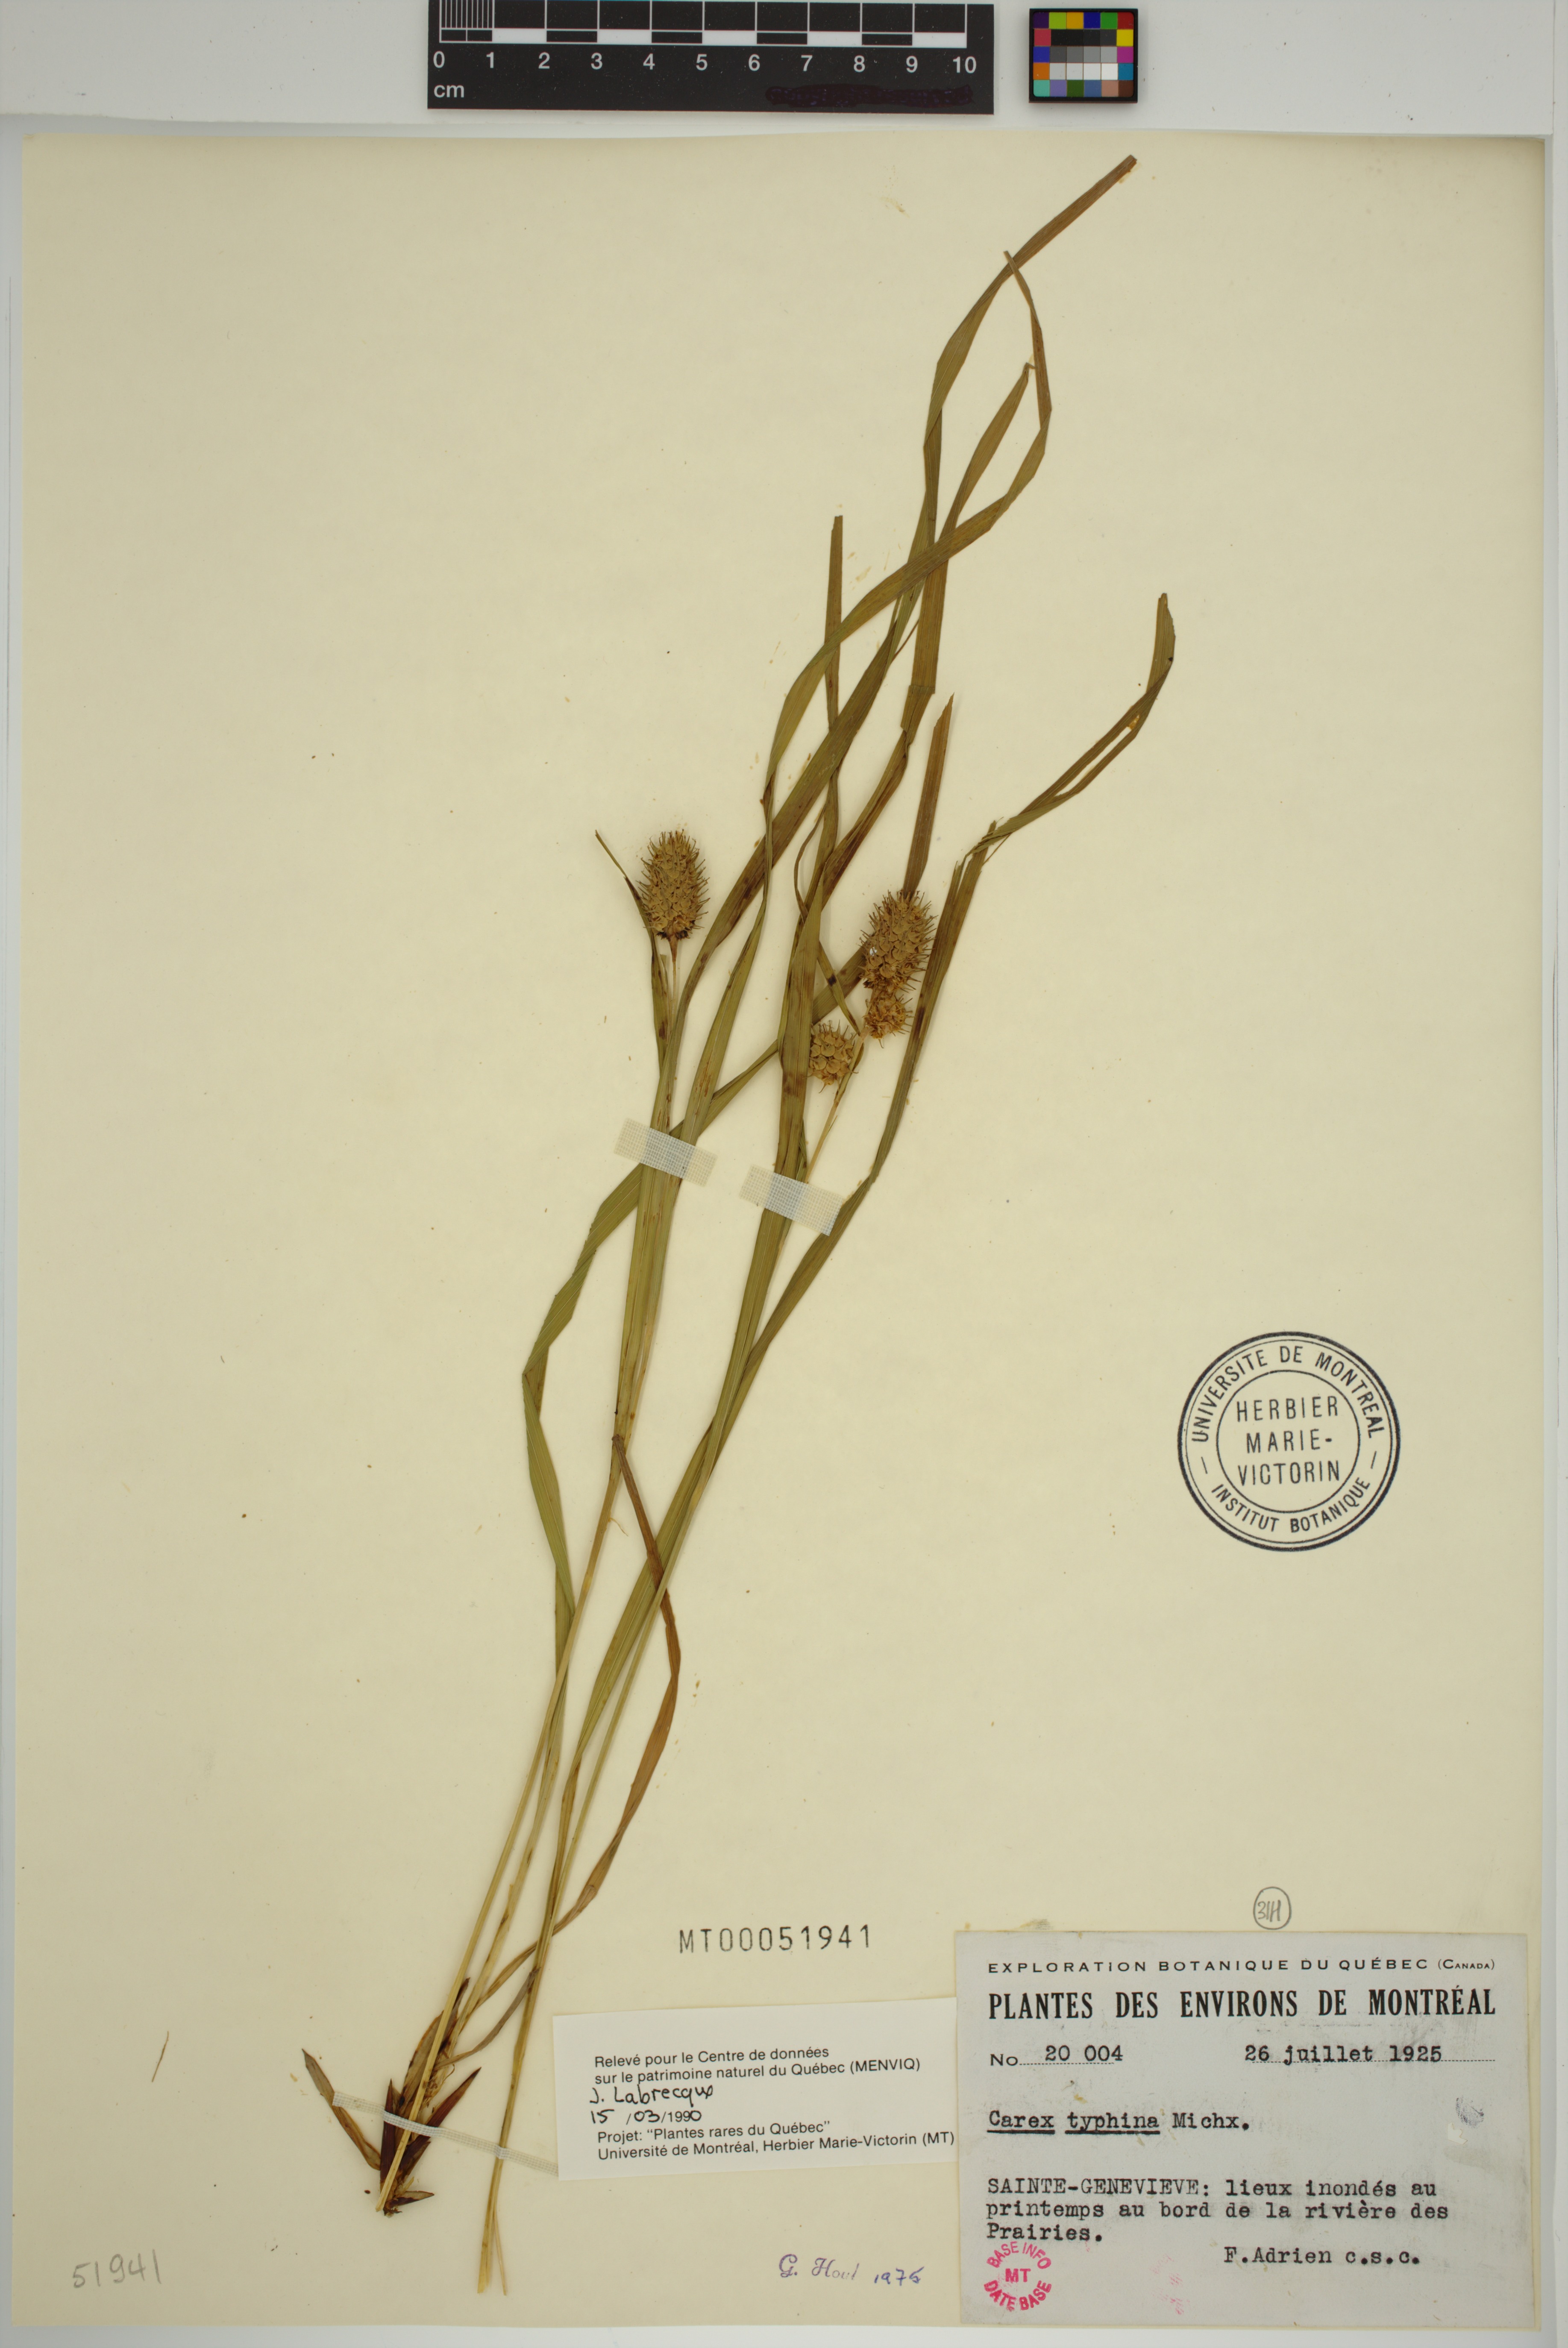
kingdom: Plantae
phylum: Tracheophyta
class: Liliopsida
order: Poales
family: Cyperaceae
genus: Carex
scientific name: Carex typhina
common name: Cattail sedge
